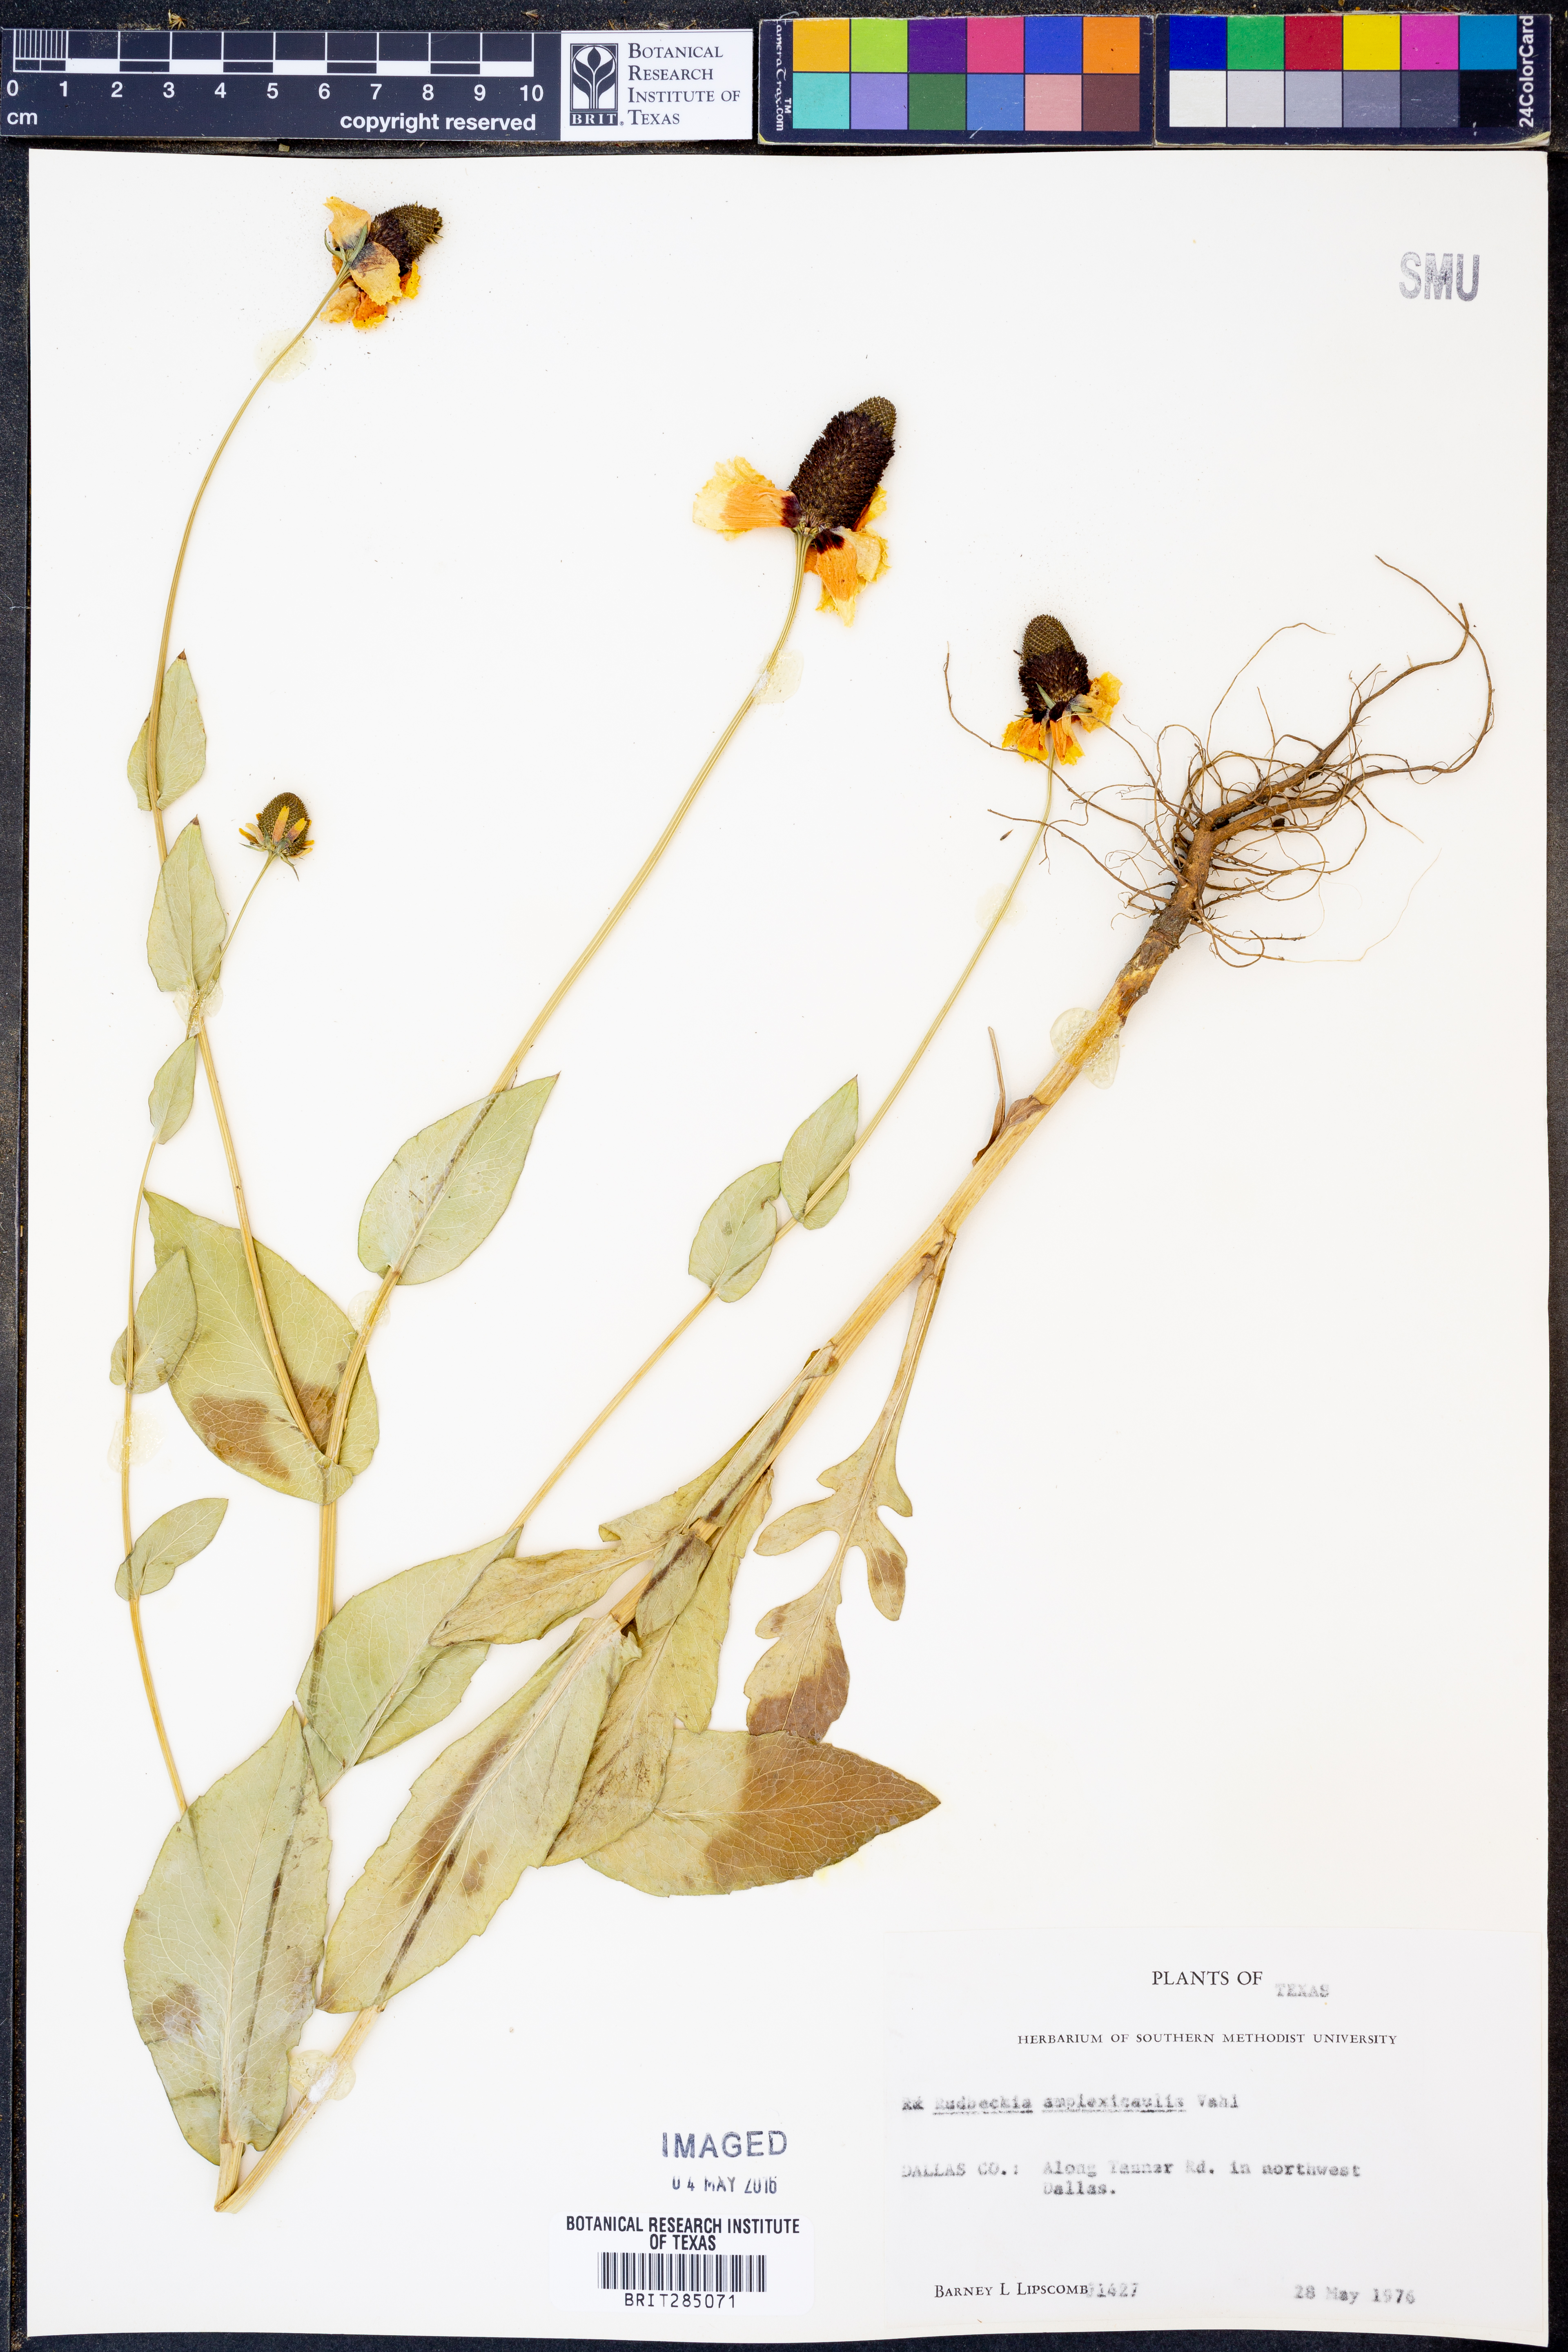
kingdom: Plantae
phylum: Tracheophyta
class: Magnoliopsida
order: Asterales
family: Asteraceae
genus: Rudbeckia
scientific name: Rudbeckia amplexicaulis
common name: Clasping-leaf coneflower
